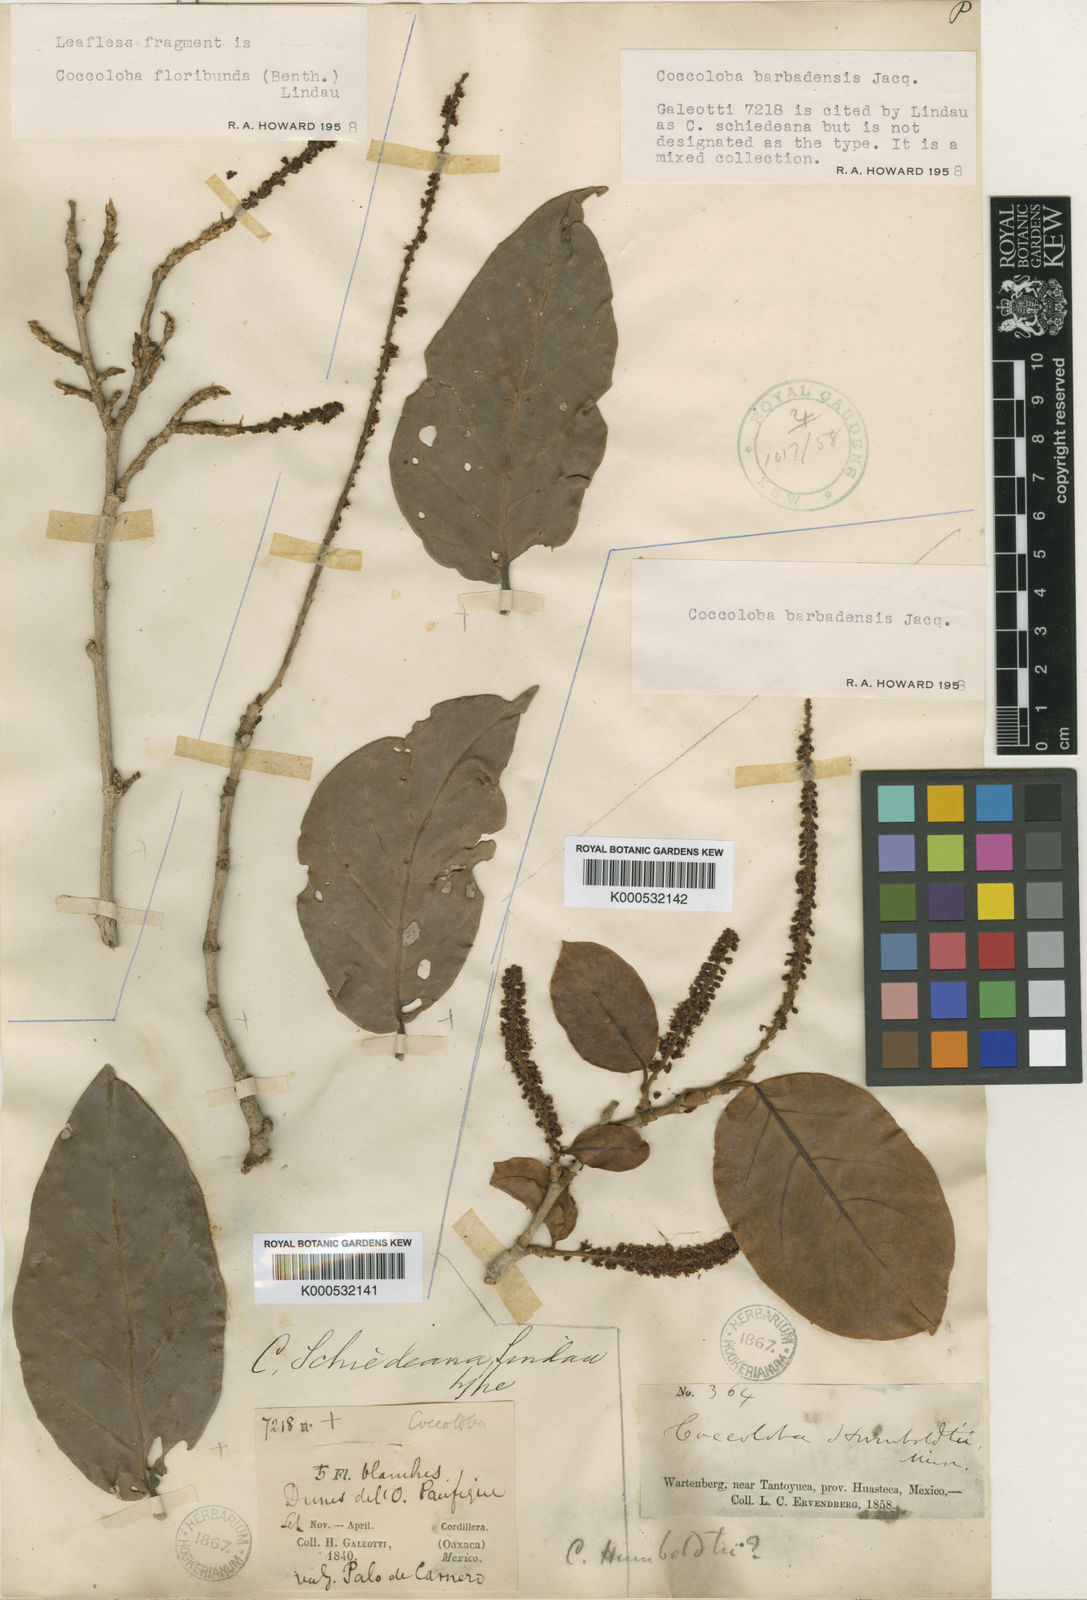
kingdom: Plantae
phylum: Tracheophyta
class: Magnoliopsida
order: Caryophyllales
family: Polygonaceae
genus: Coccoloba
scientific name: Coccoloba barbadensis
